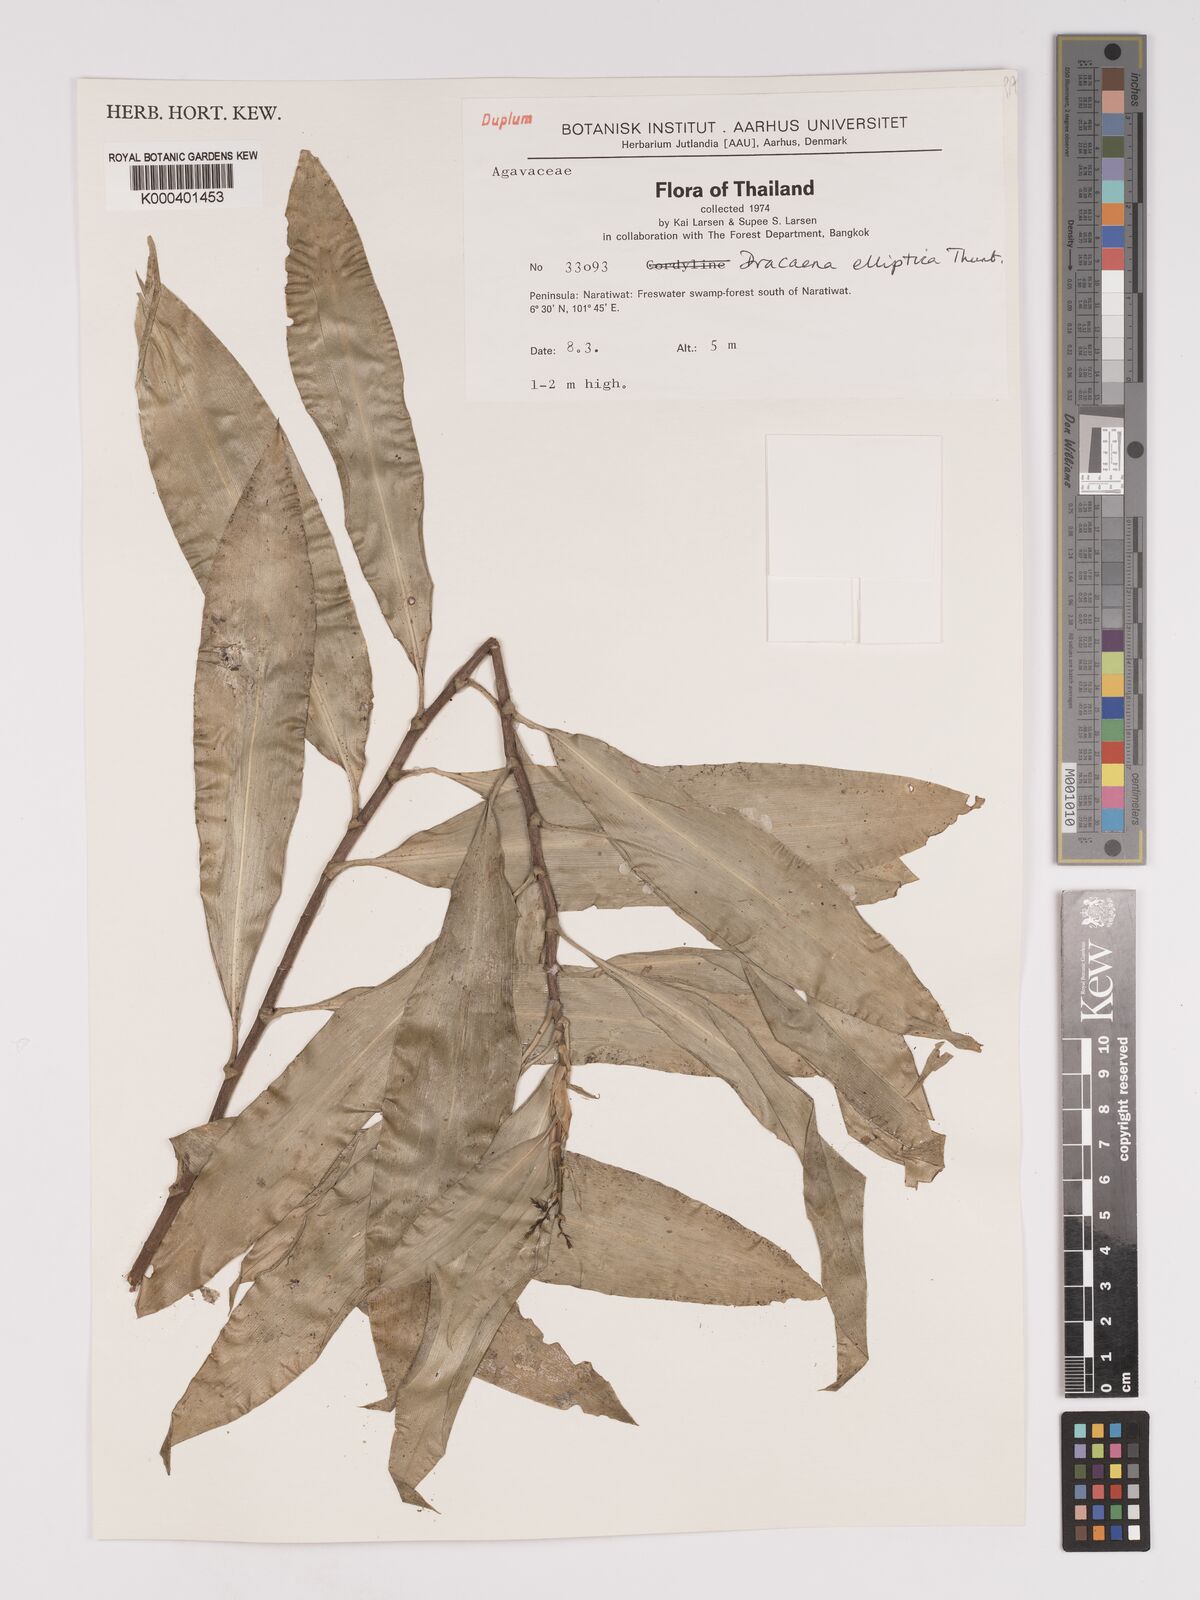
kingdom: Plantae
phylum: Tracheophyta
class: Liliopsida
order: Asparagales
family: Asparagaceae
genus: Dracaena
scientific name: Dracaena elliptica
